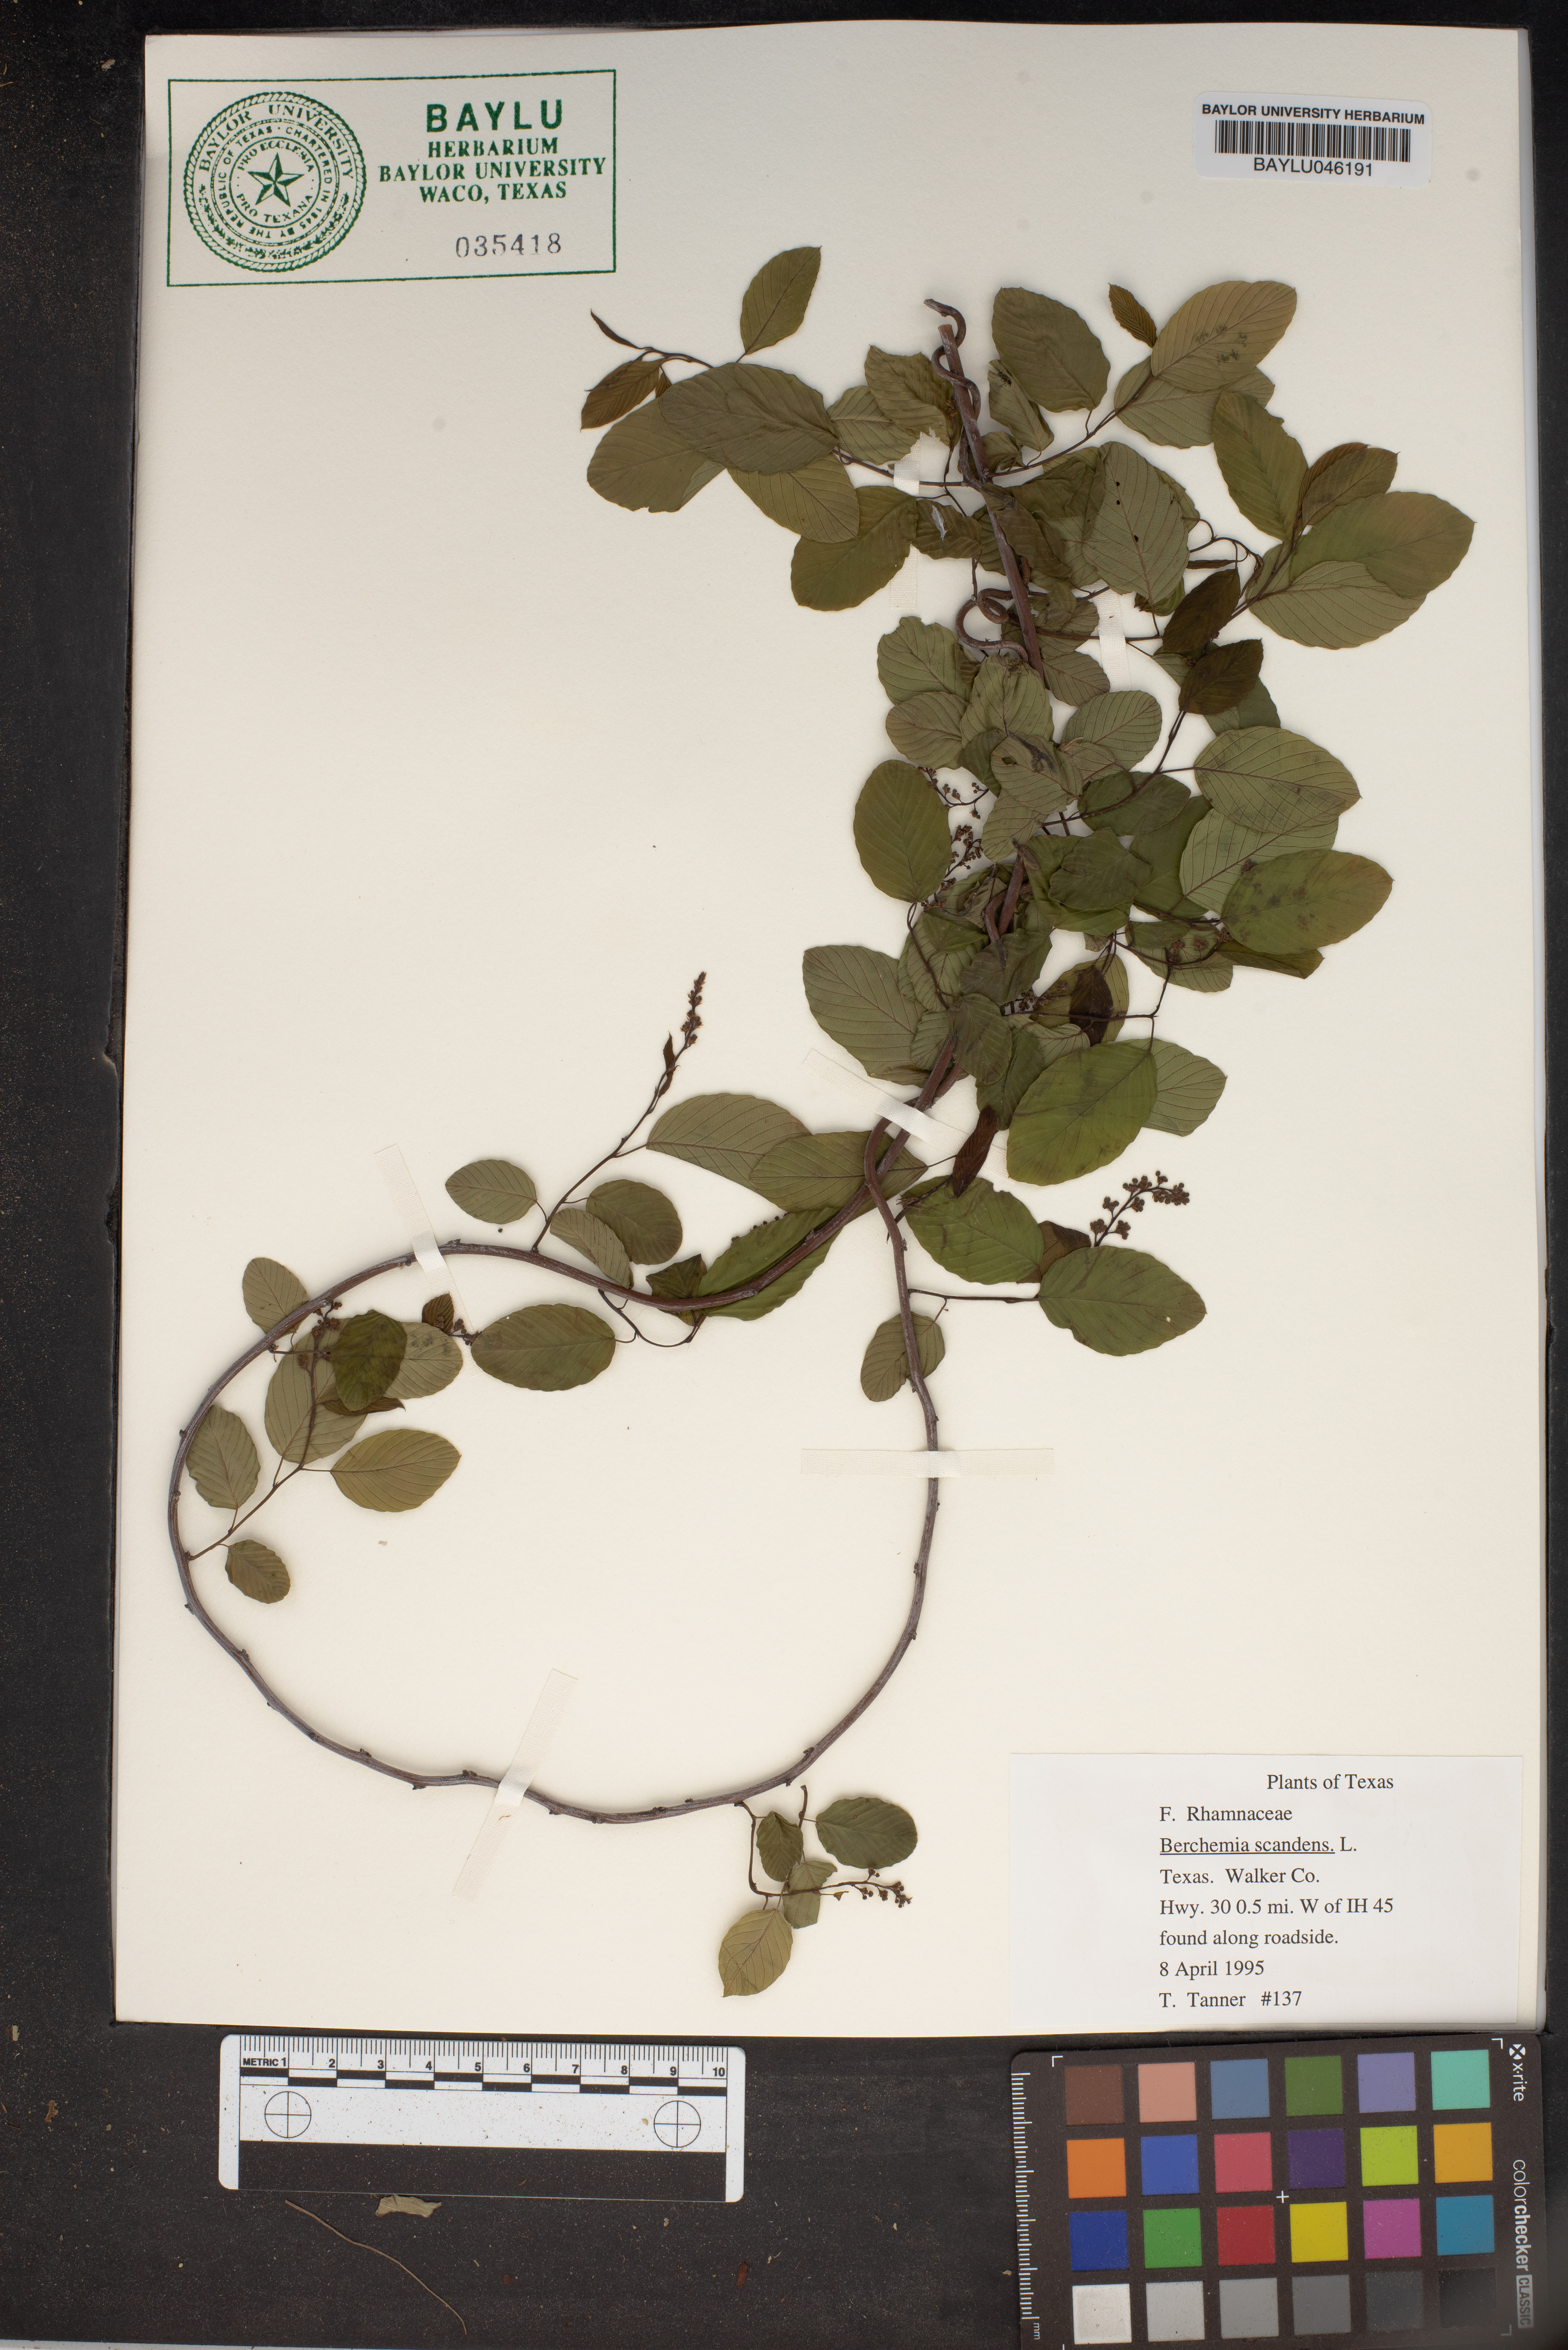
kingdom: Plantae
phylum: Tracheophyta
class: Magnoliopsida
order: Rosales
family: Rhamnaceae
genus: Berchemia
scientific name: Berchemia scandens
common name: Supplejack
